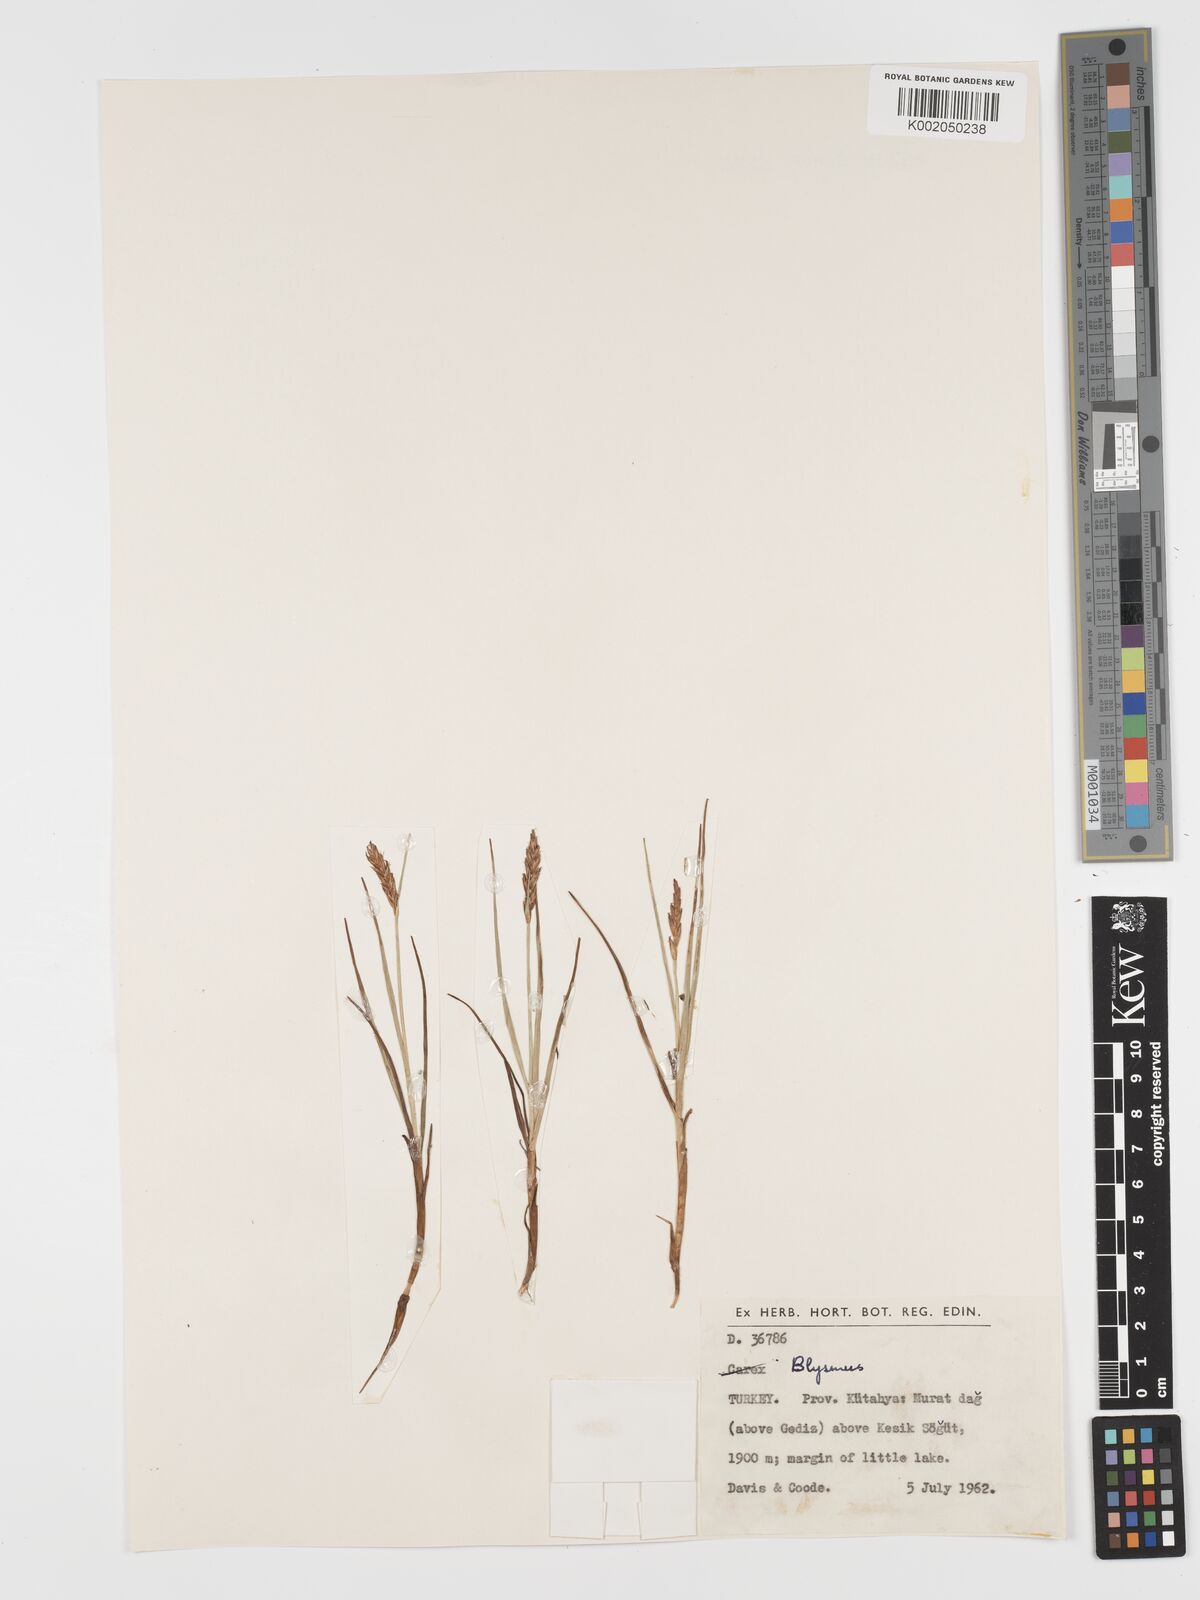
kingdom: Plantae
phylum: Tracheophyta
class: Liliopsida
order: Poales
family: Cyperaceae
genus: Blysmus
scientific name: Blysmus compressus
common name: Flat-sedge
